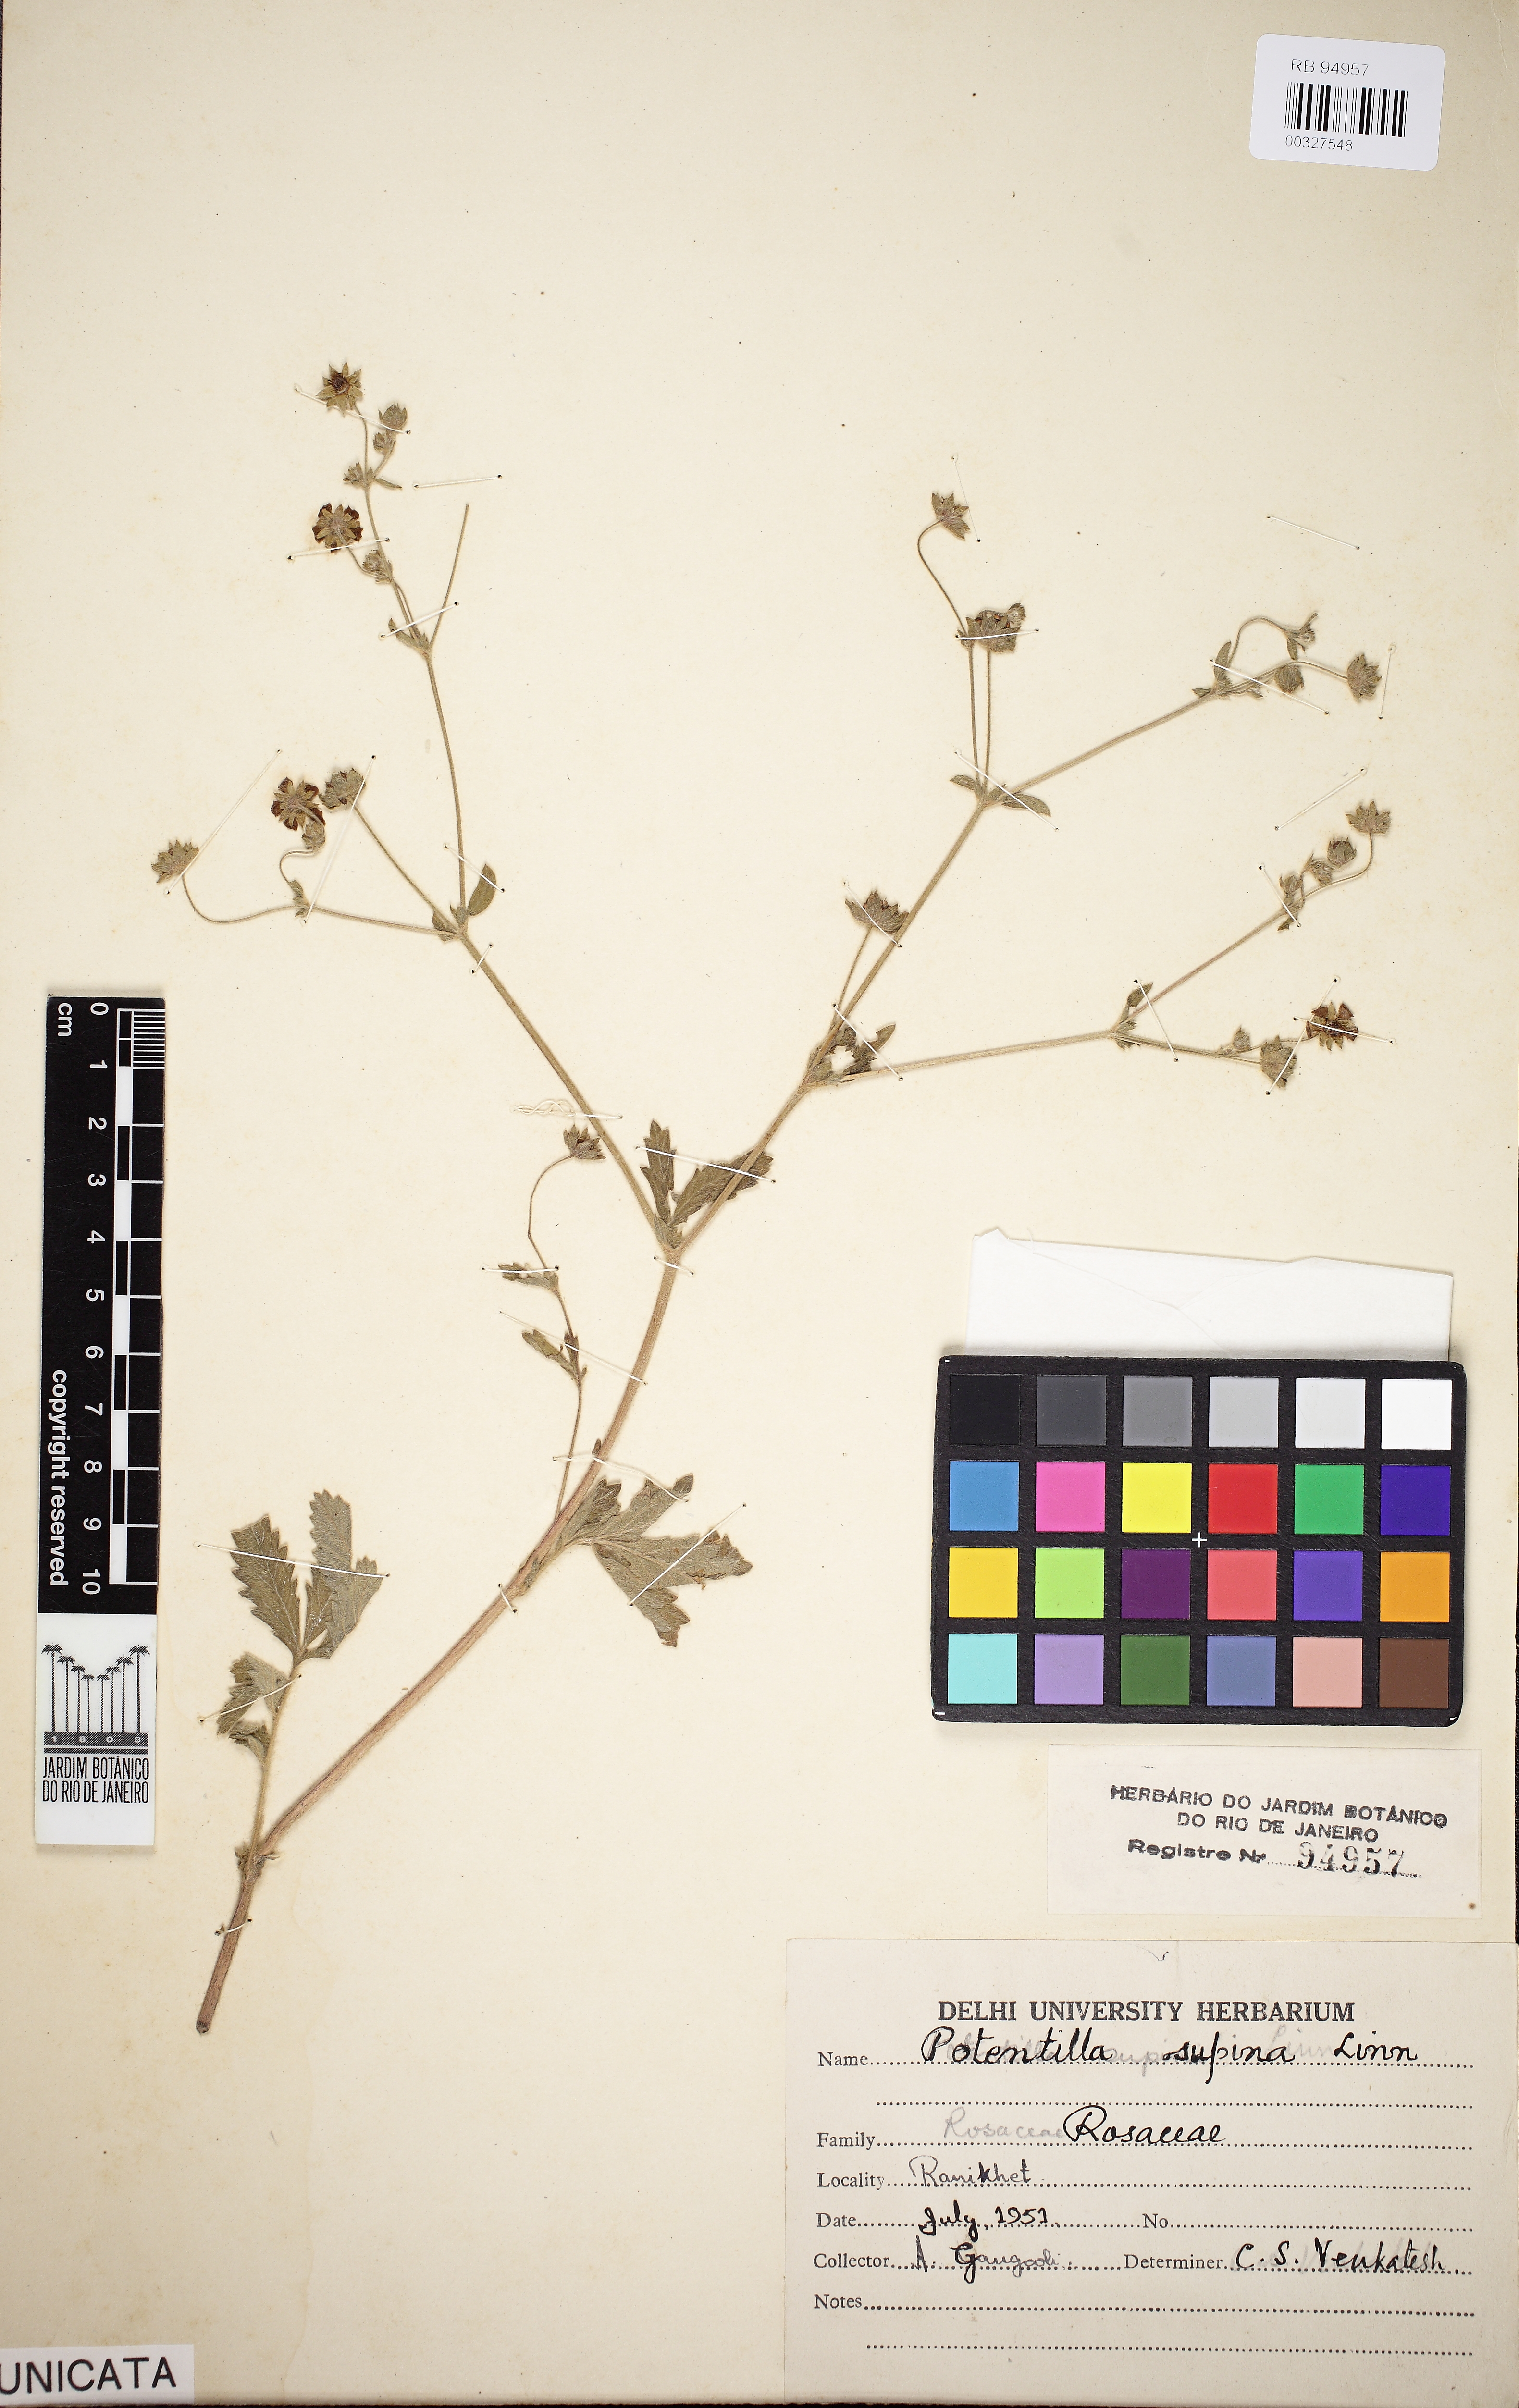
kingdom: Plantae
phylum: Tracheophyta
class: Magnoliopsida
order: Rosales
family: Rosaceae
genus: Potentilla
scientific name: Potentilla supina
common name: Prostrate cinquefoil
